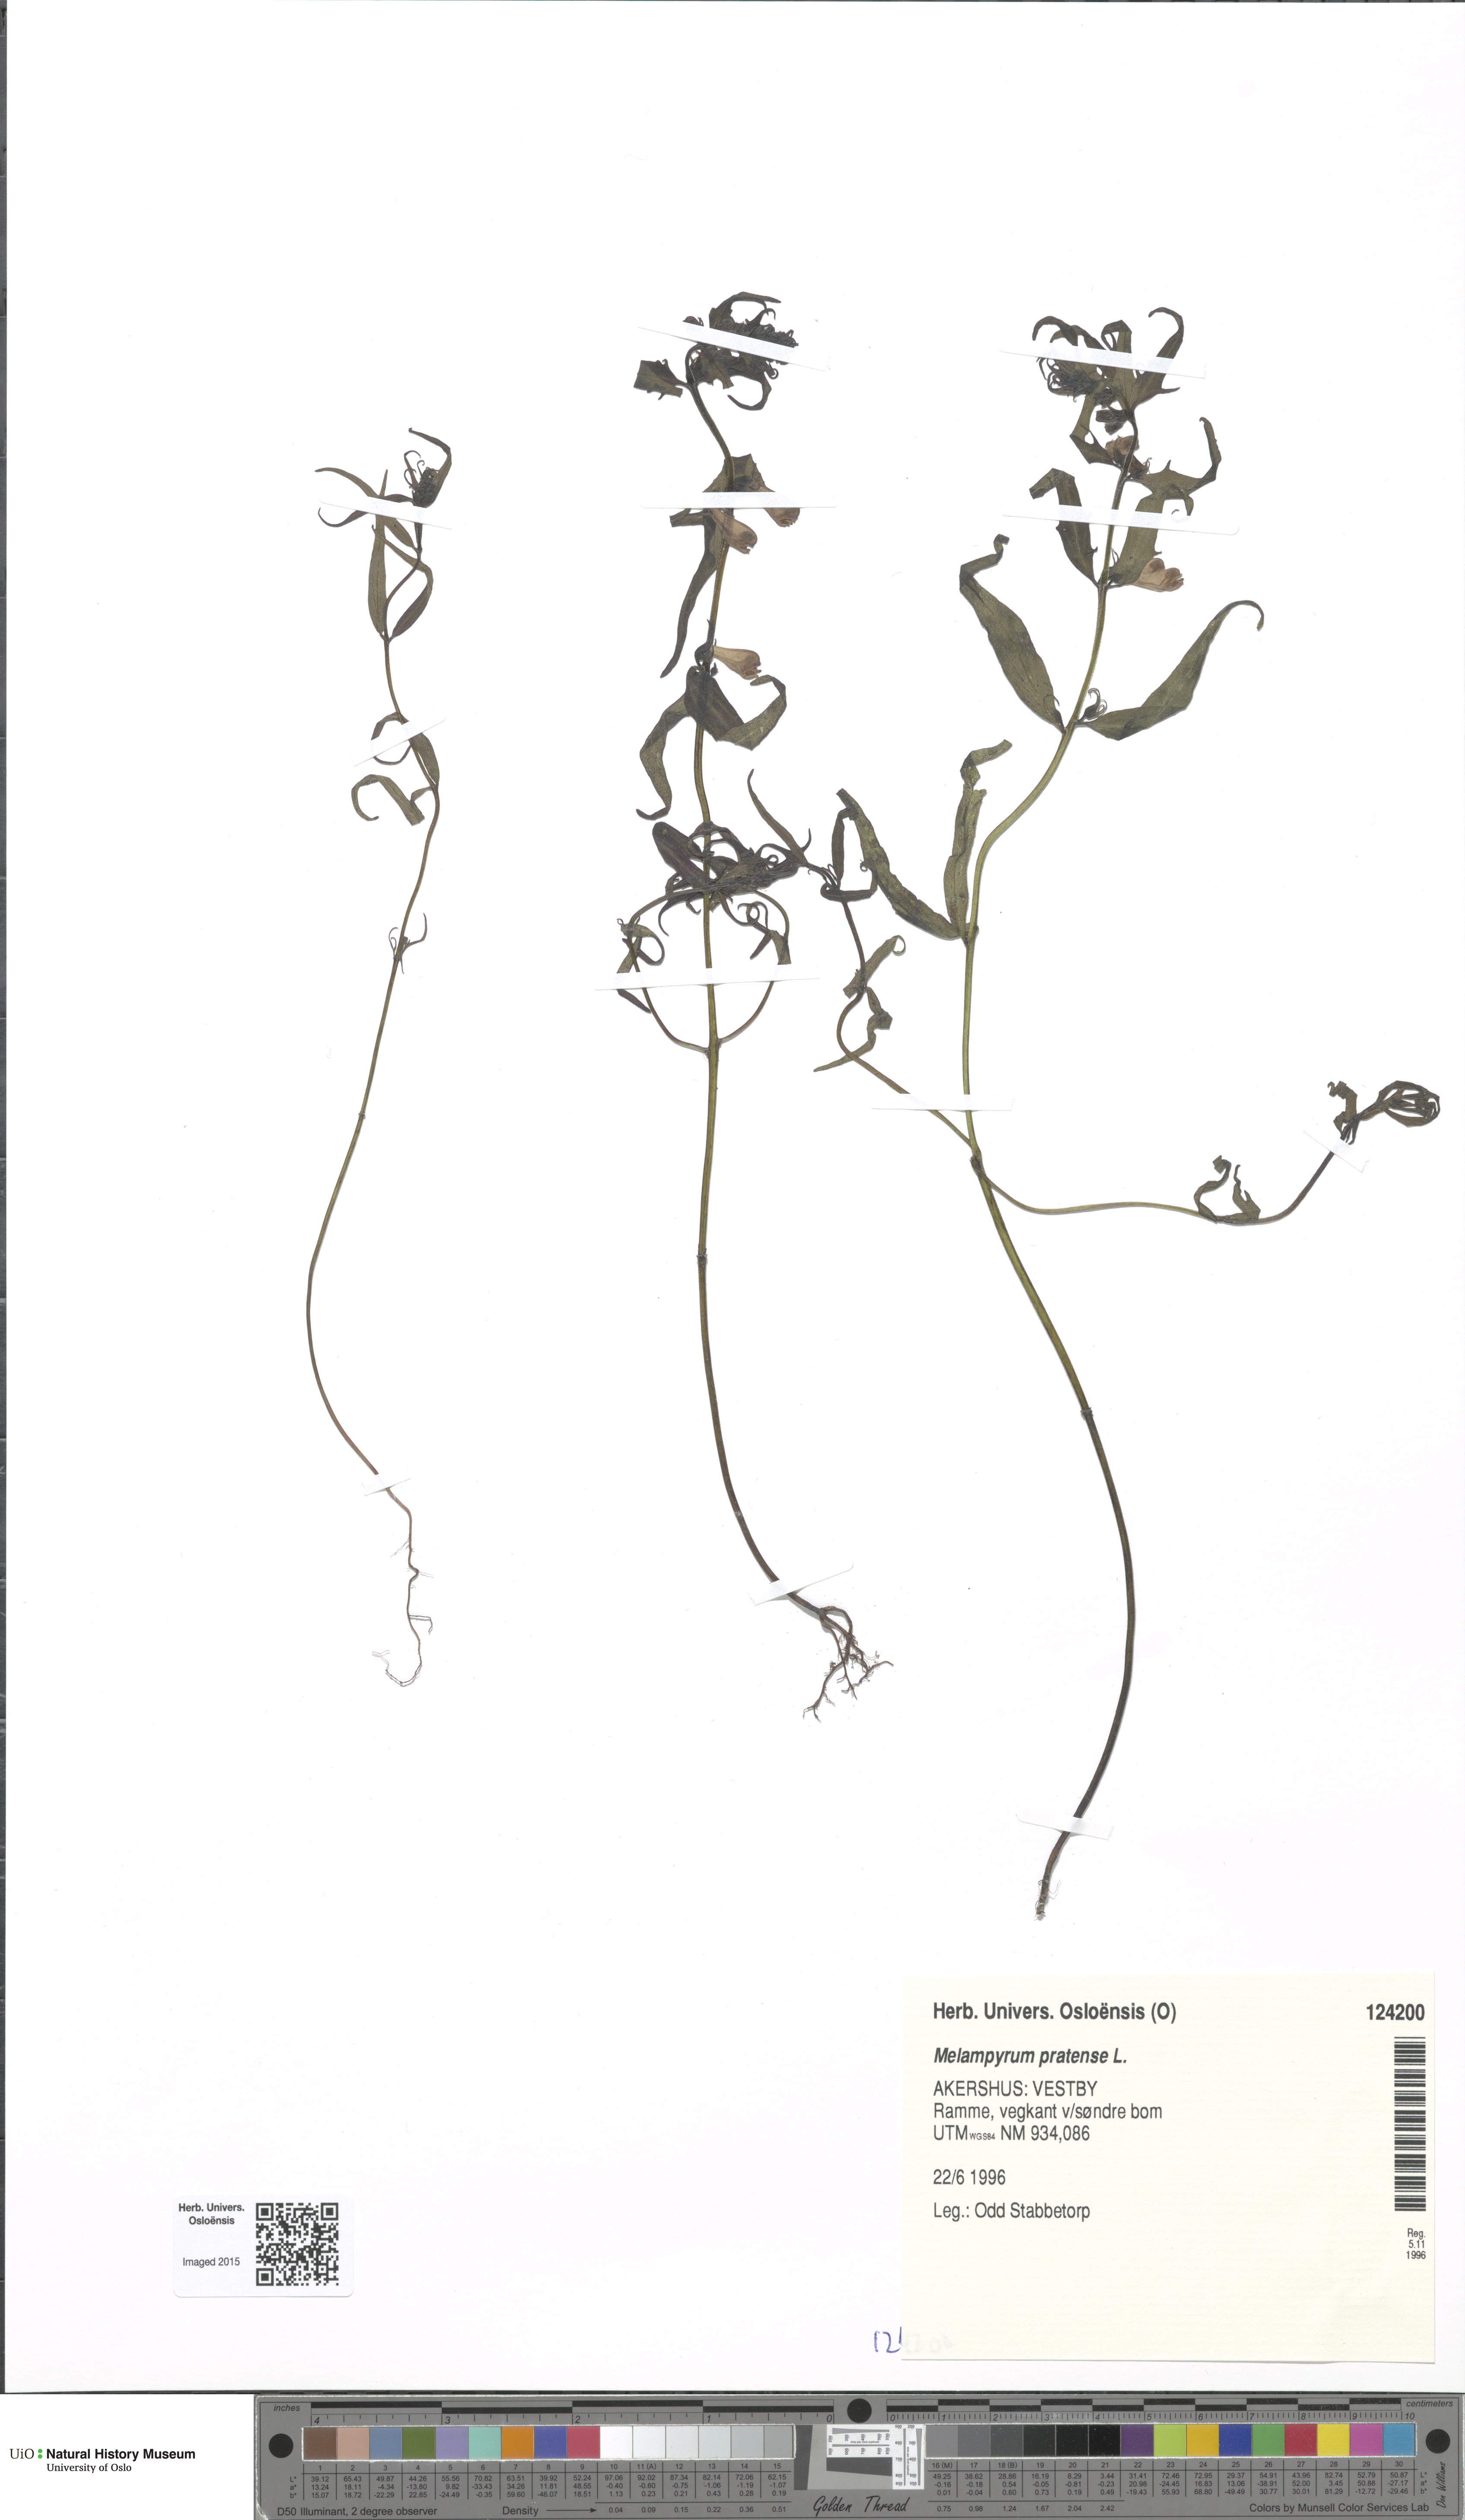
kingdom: Plantae
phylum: Tracheophyta
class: Magnoliopsida
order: Lamiales
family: Orobanchaceae
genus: Melampyrum
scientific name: Melampyrum pratense
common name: Common cow-wheat
